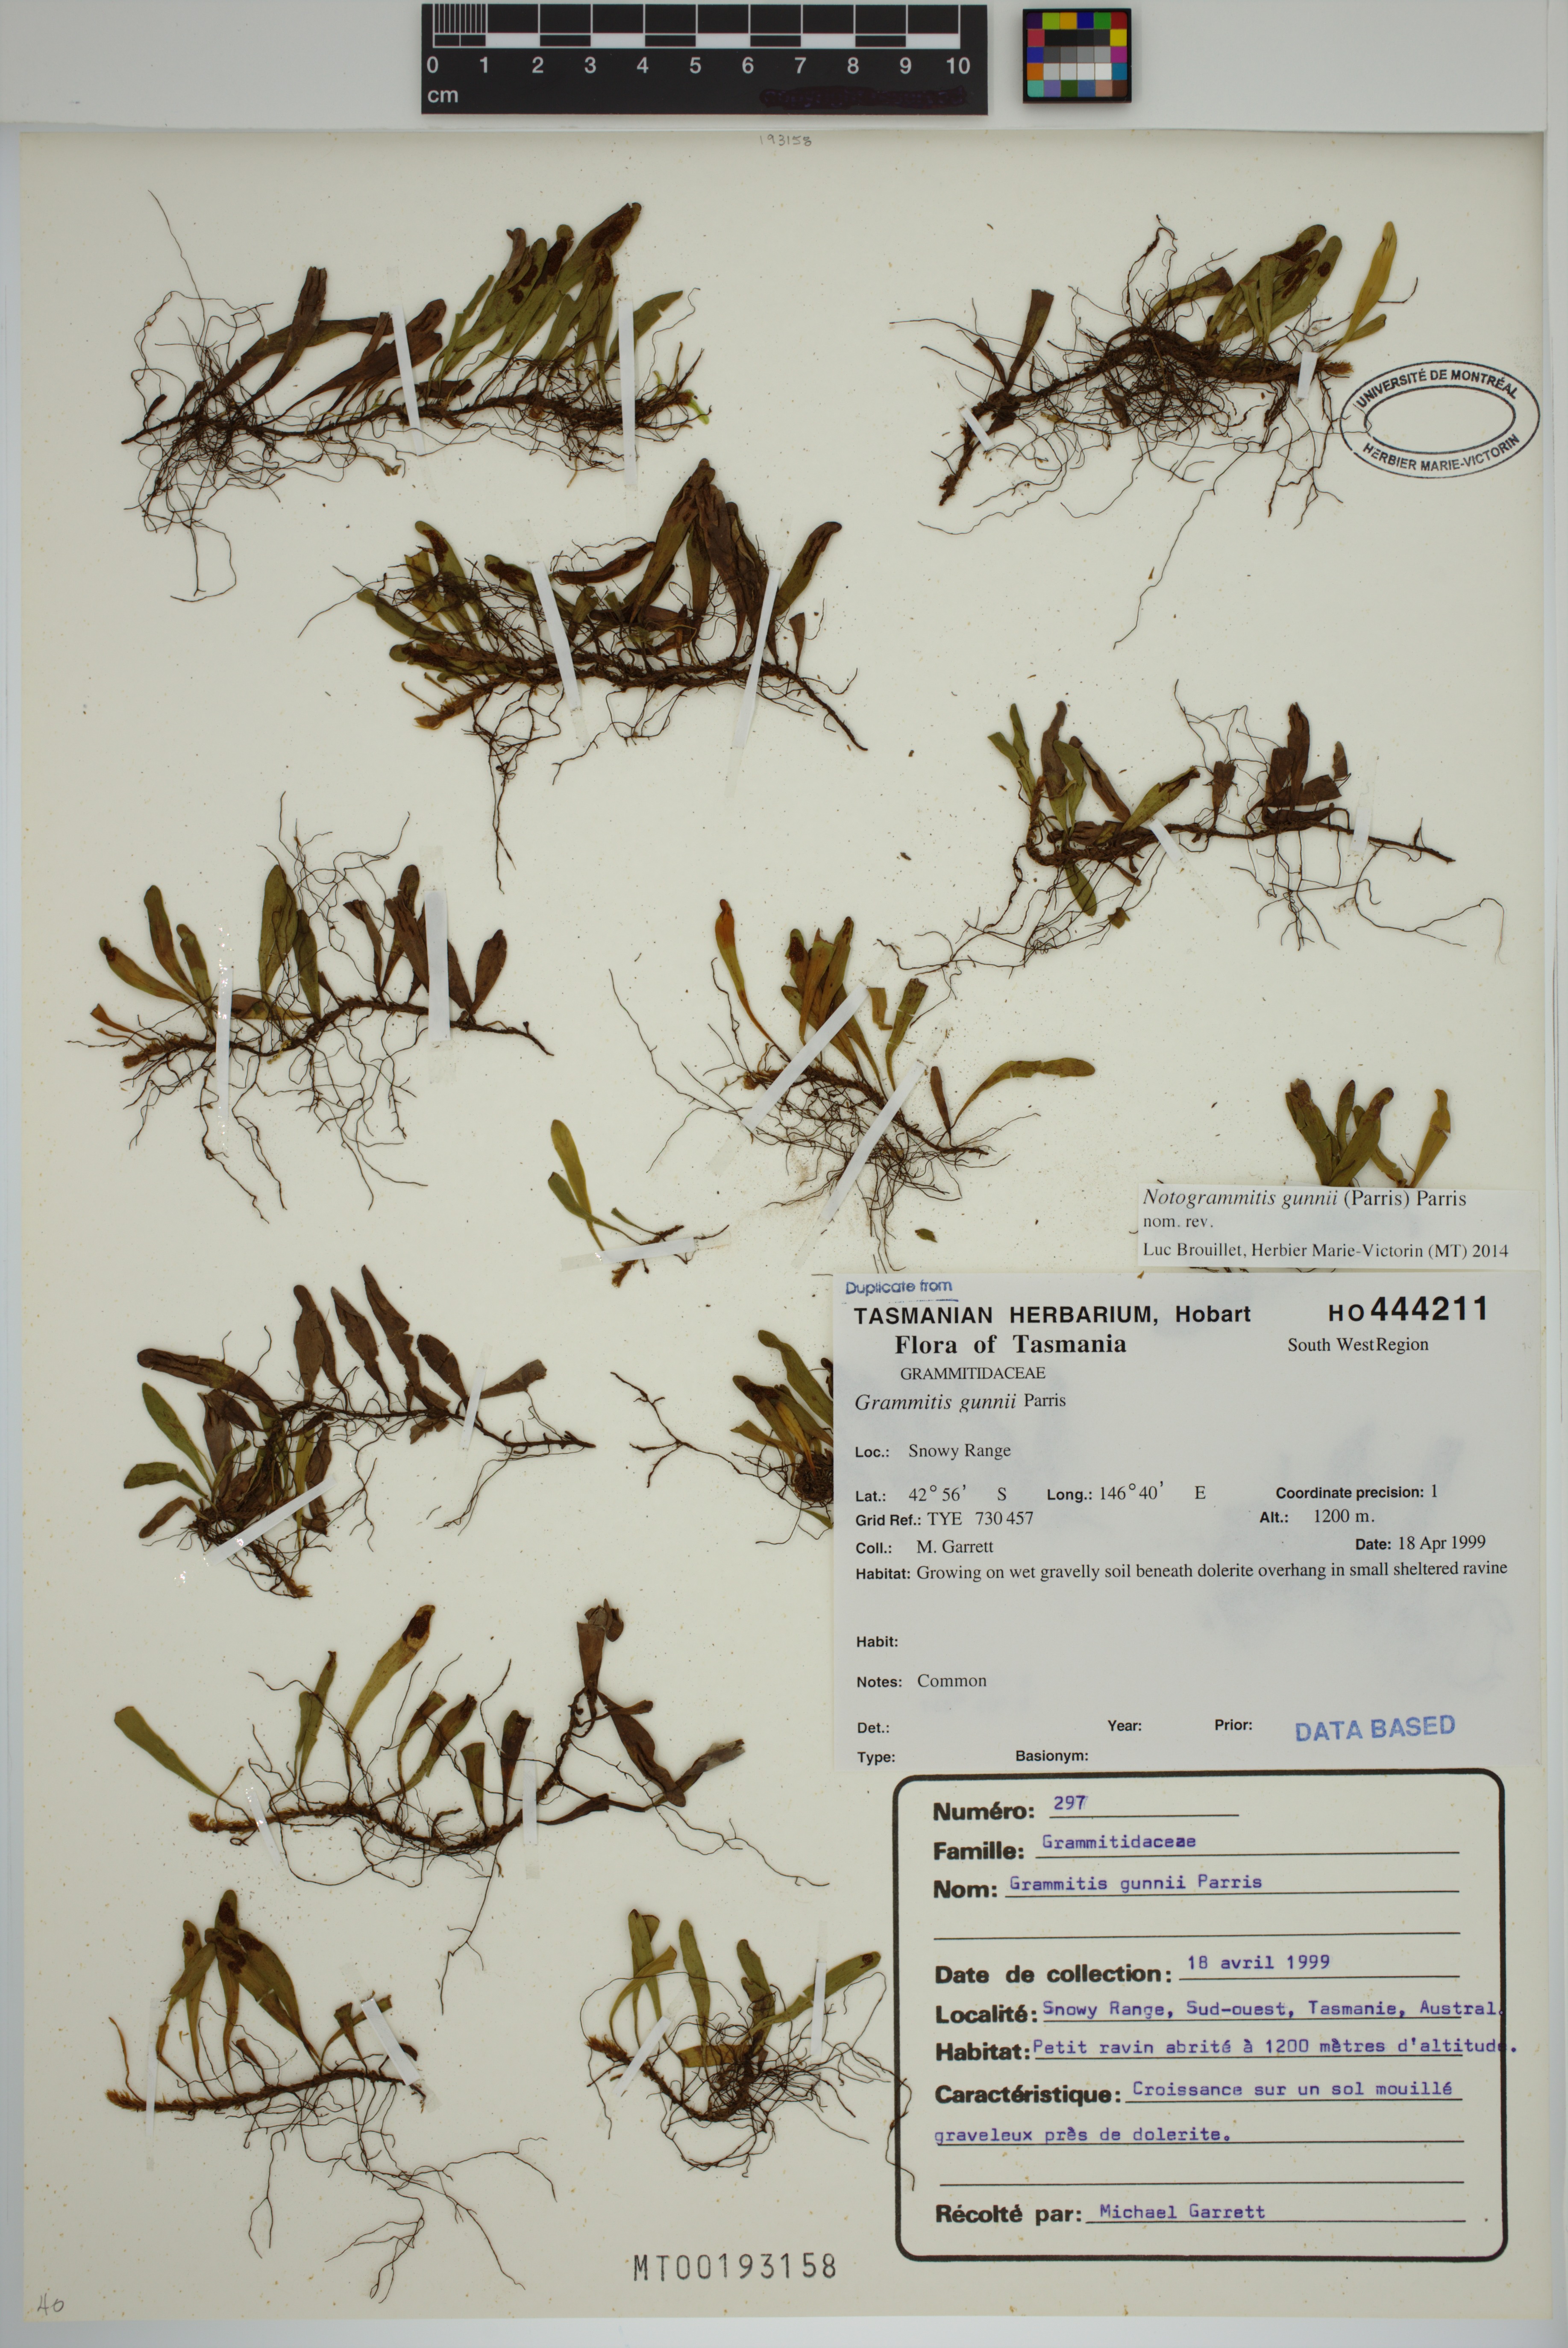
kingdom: Plantae
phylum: Tracheophyta
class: Polypodiopsida
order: Polypodiales
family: Polypodiaceae
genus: Notogrammitis
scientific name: Notogrammitis gunnii
